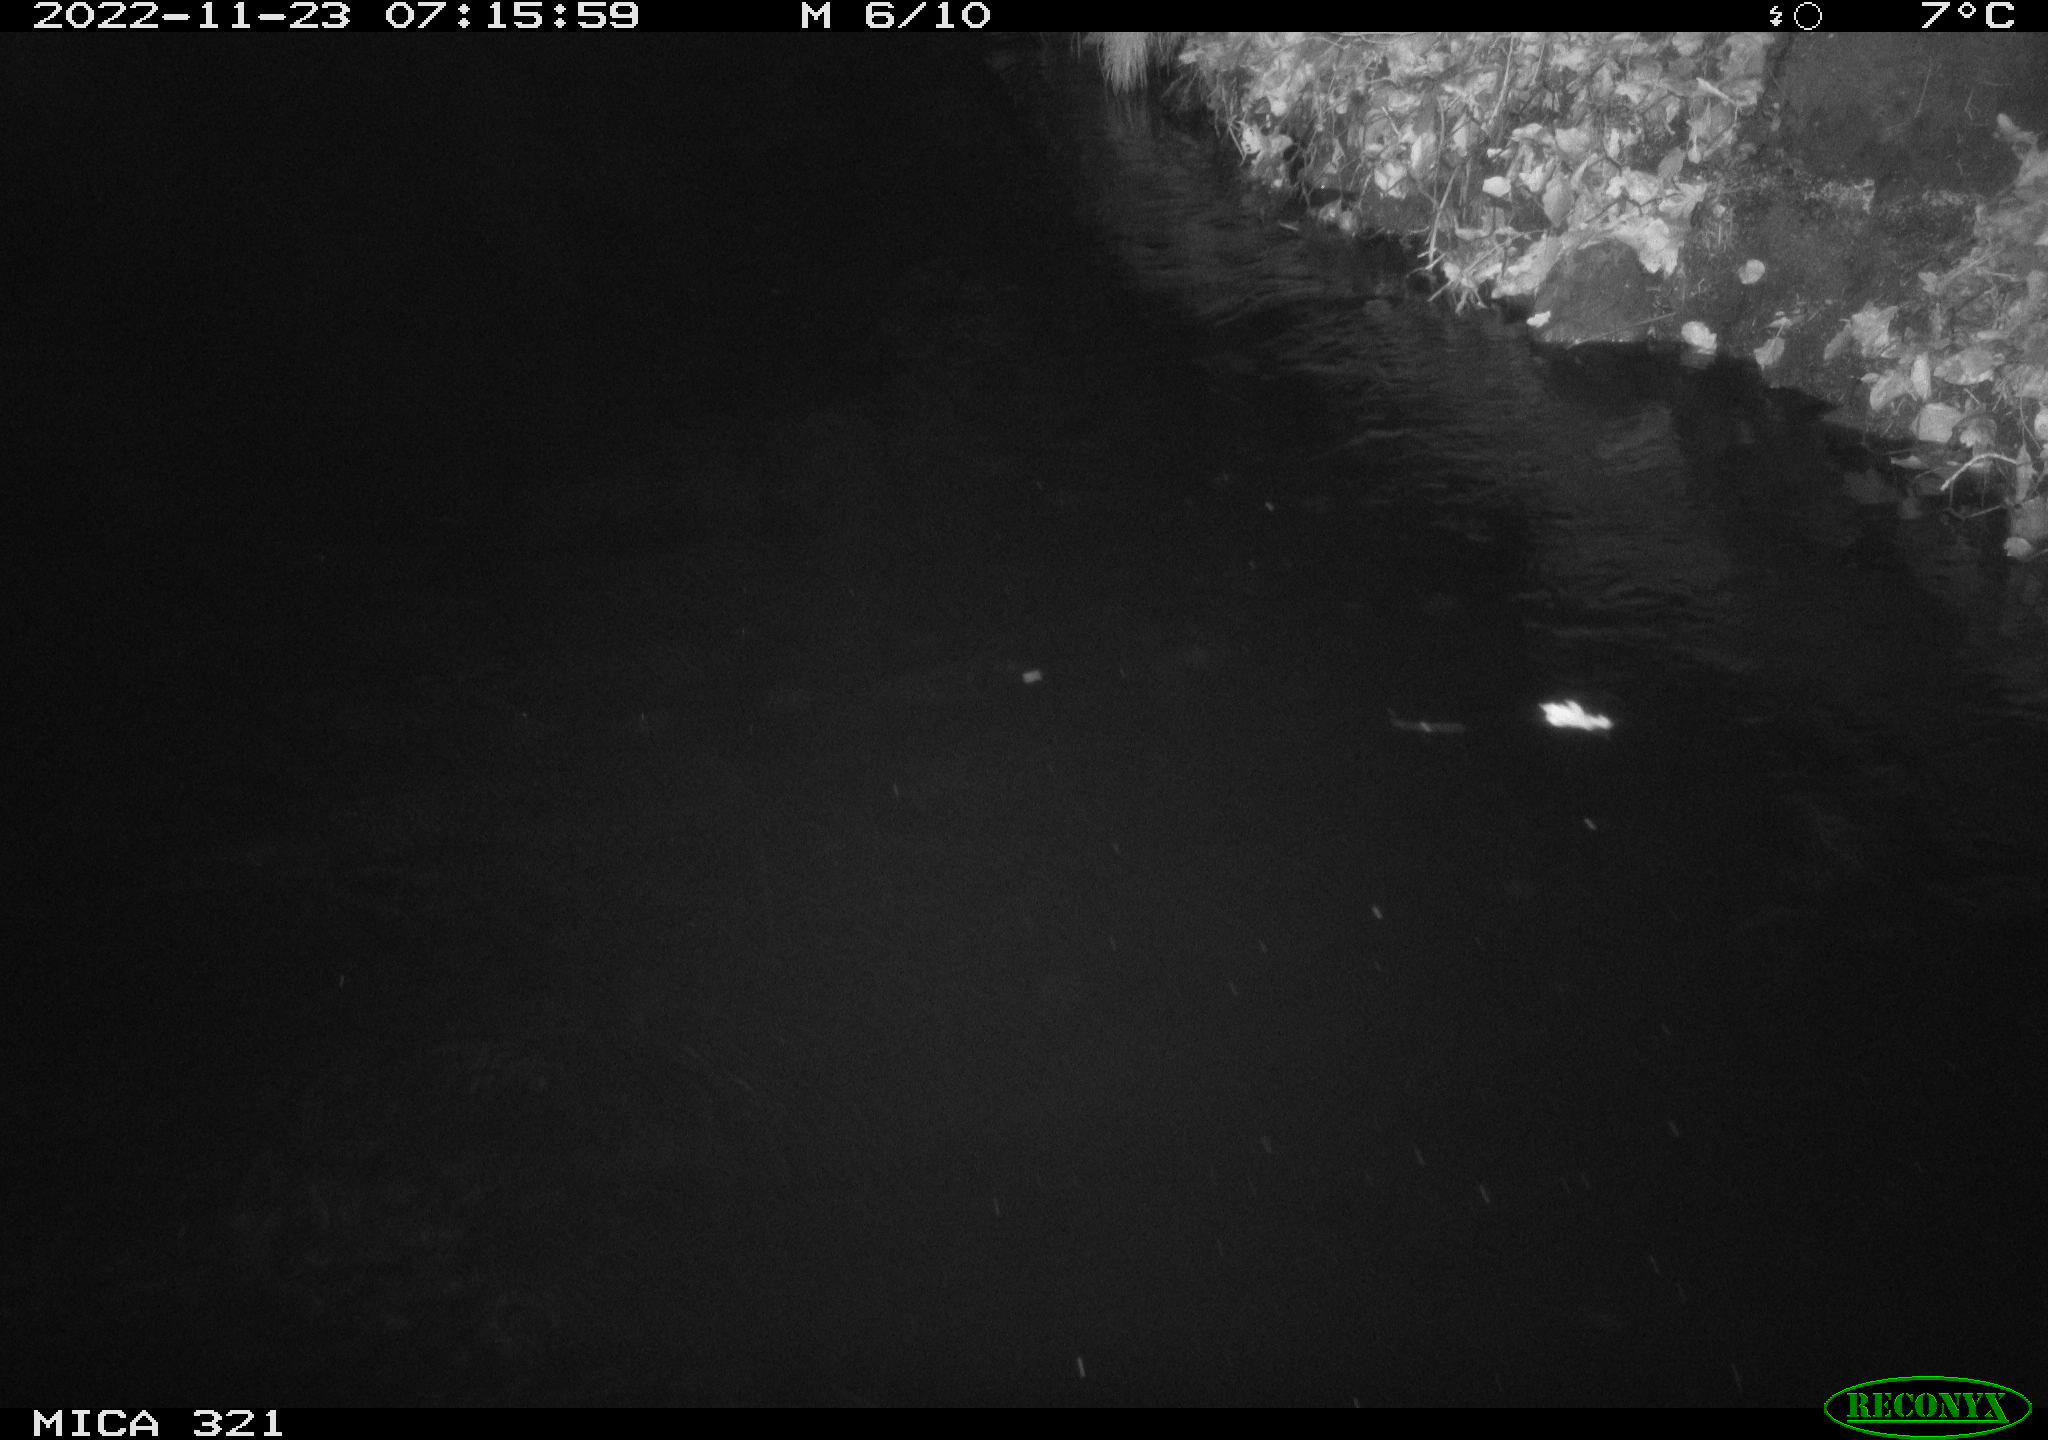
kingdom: Animalia
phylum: Chordata
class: Aves
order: Anseriformes
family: Anatidae
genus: Anas
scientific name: Anas
